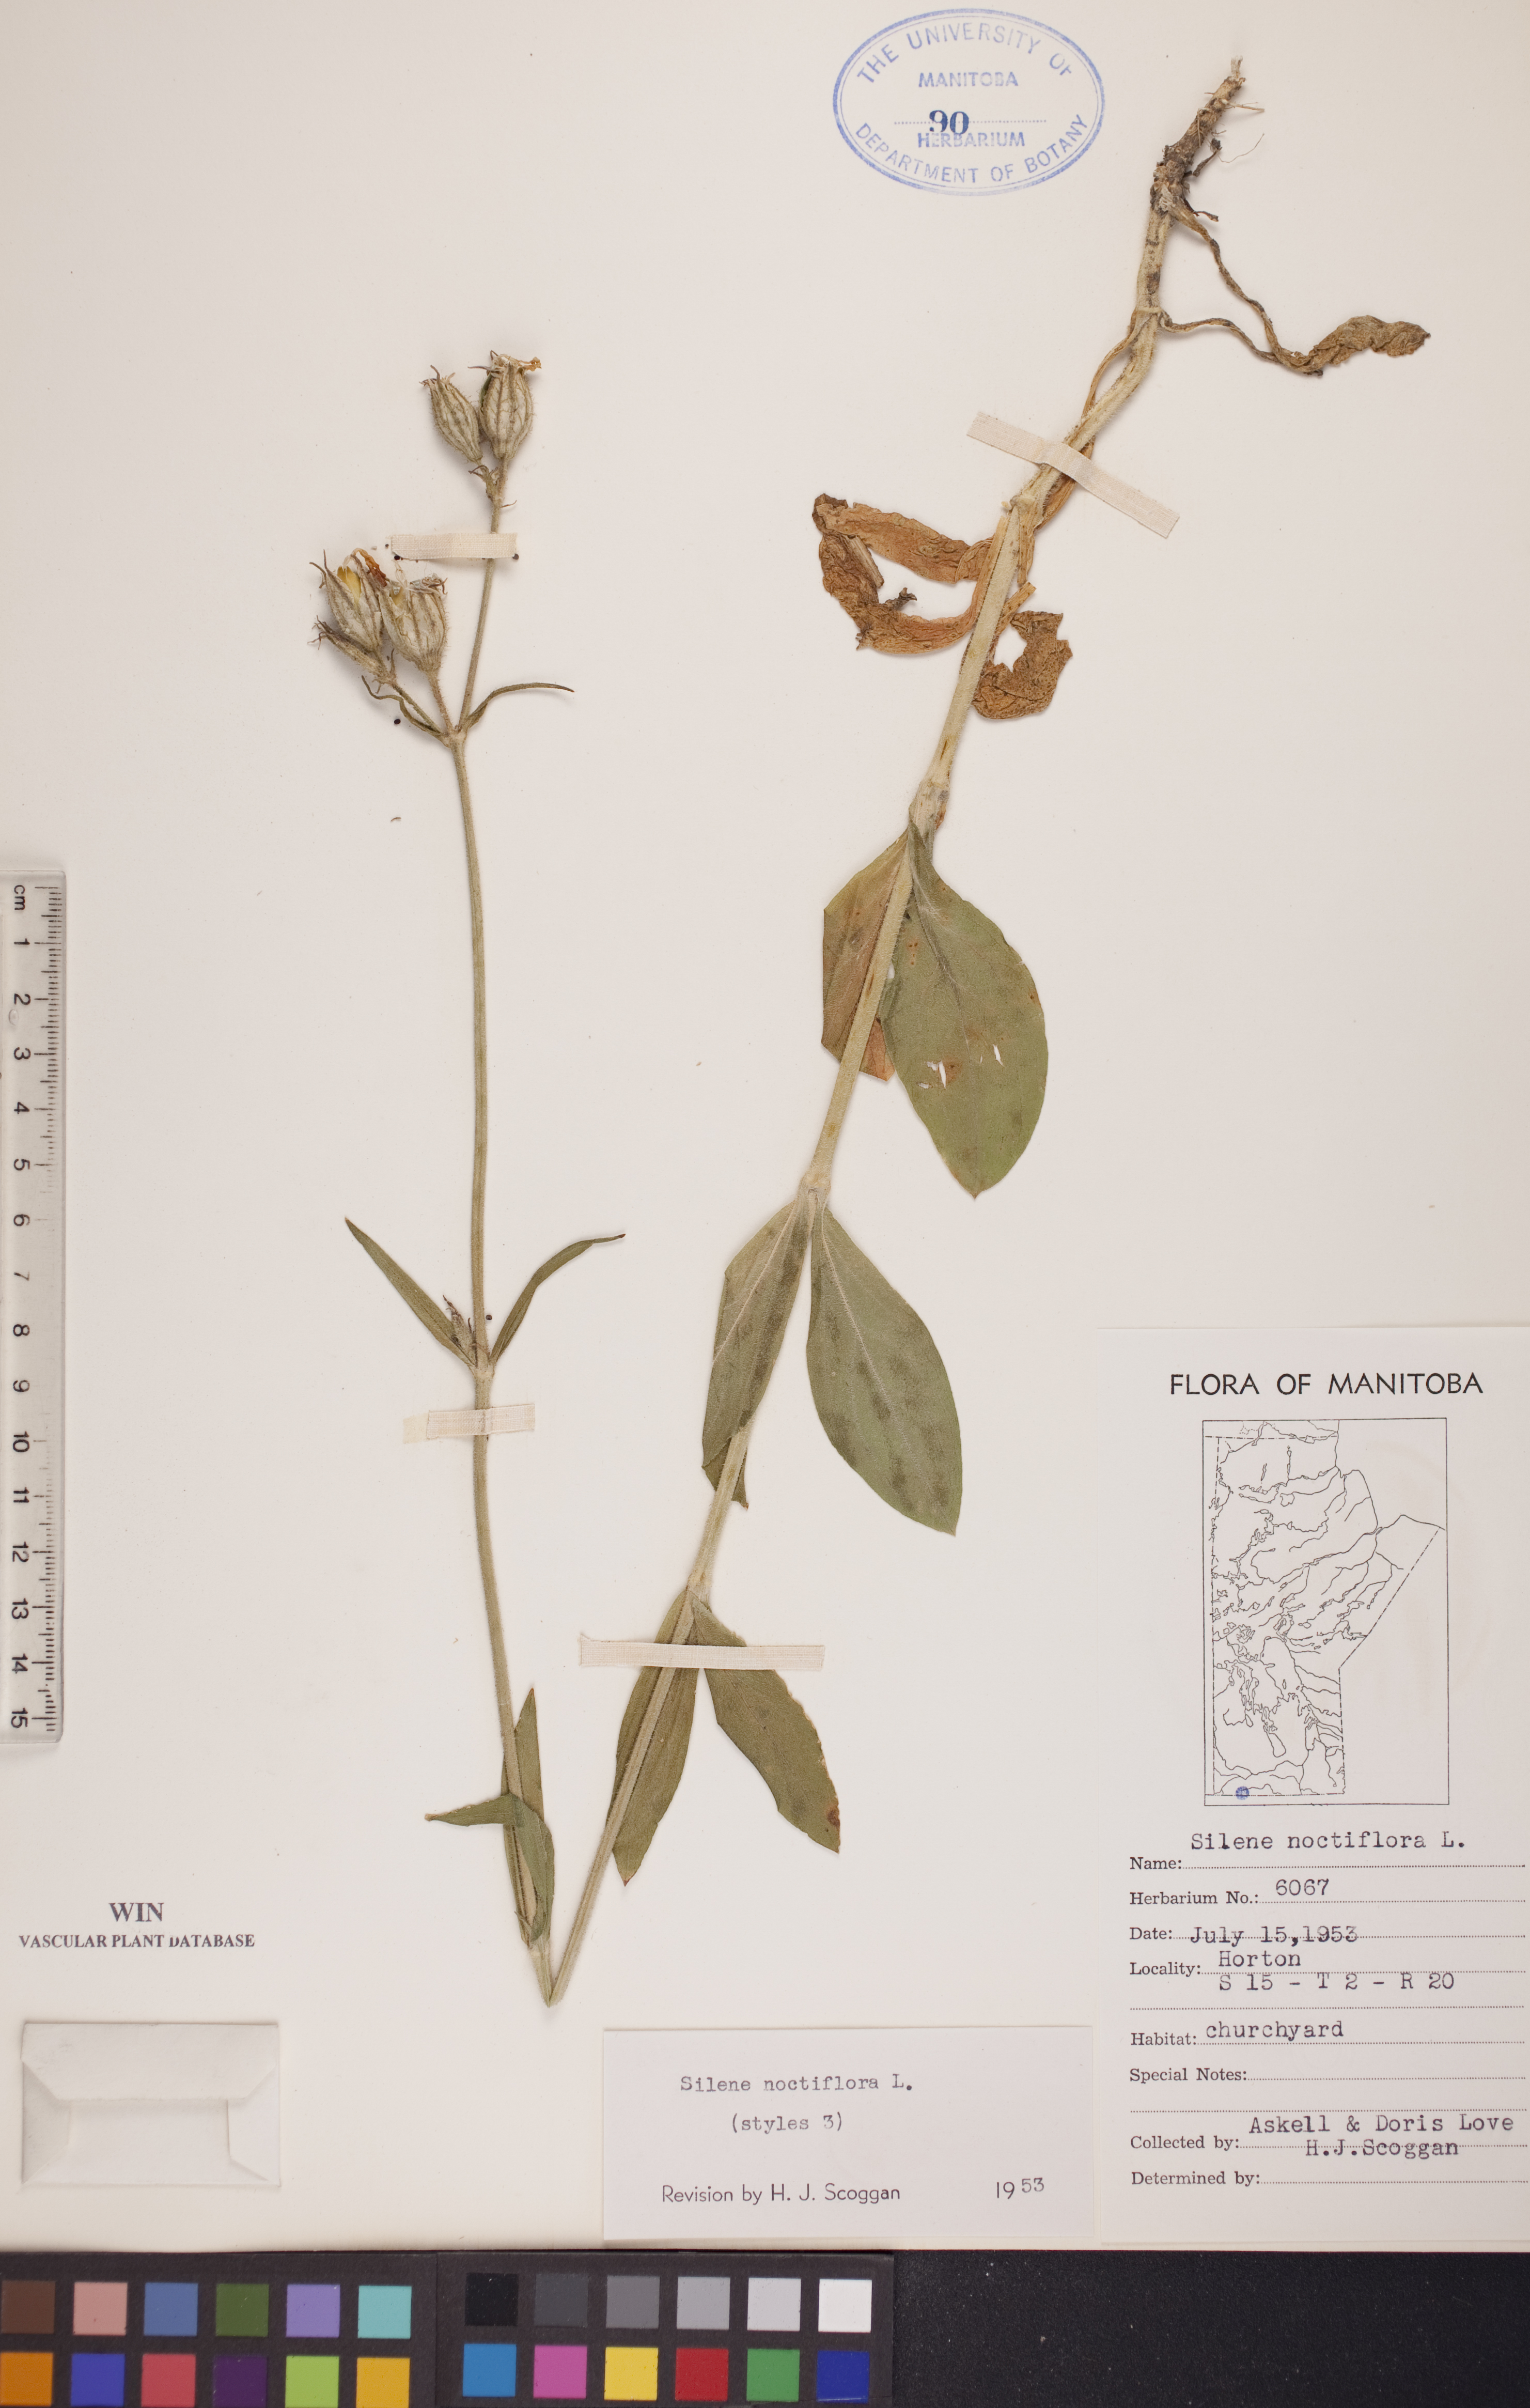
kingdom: Plantae
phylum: Tracheophyta
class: Magnoliopsida
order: Caryophyllales
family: Caryophyllaceae
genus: Silene
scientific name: Silene noctiflora
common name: Night-flowering catchfly
